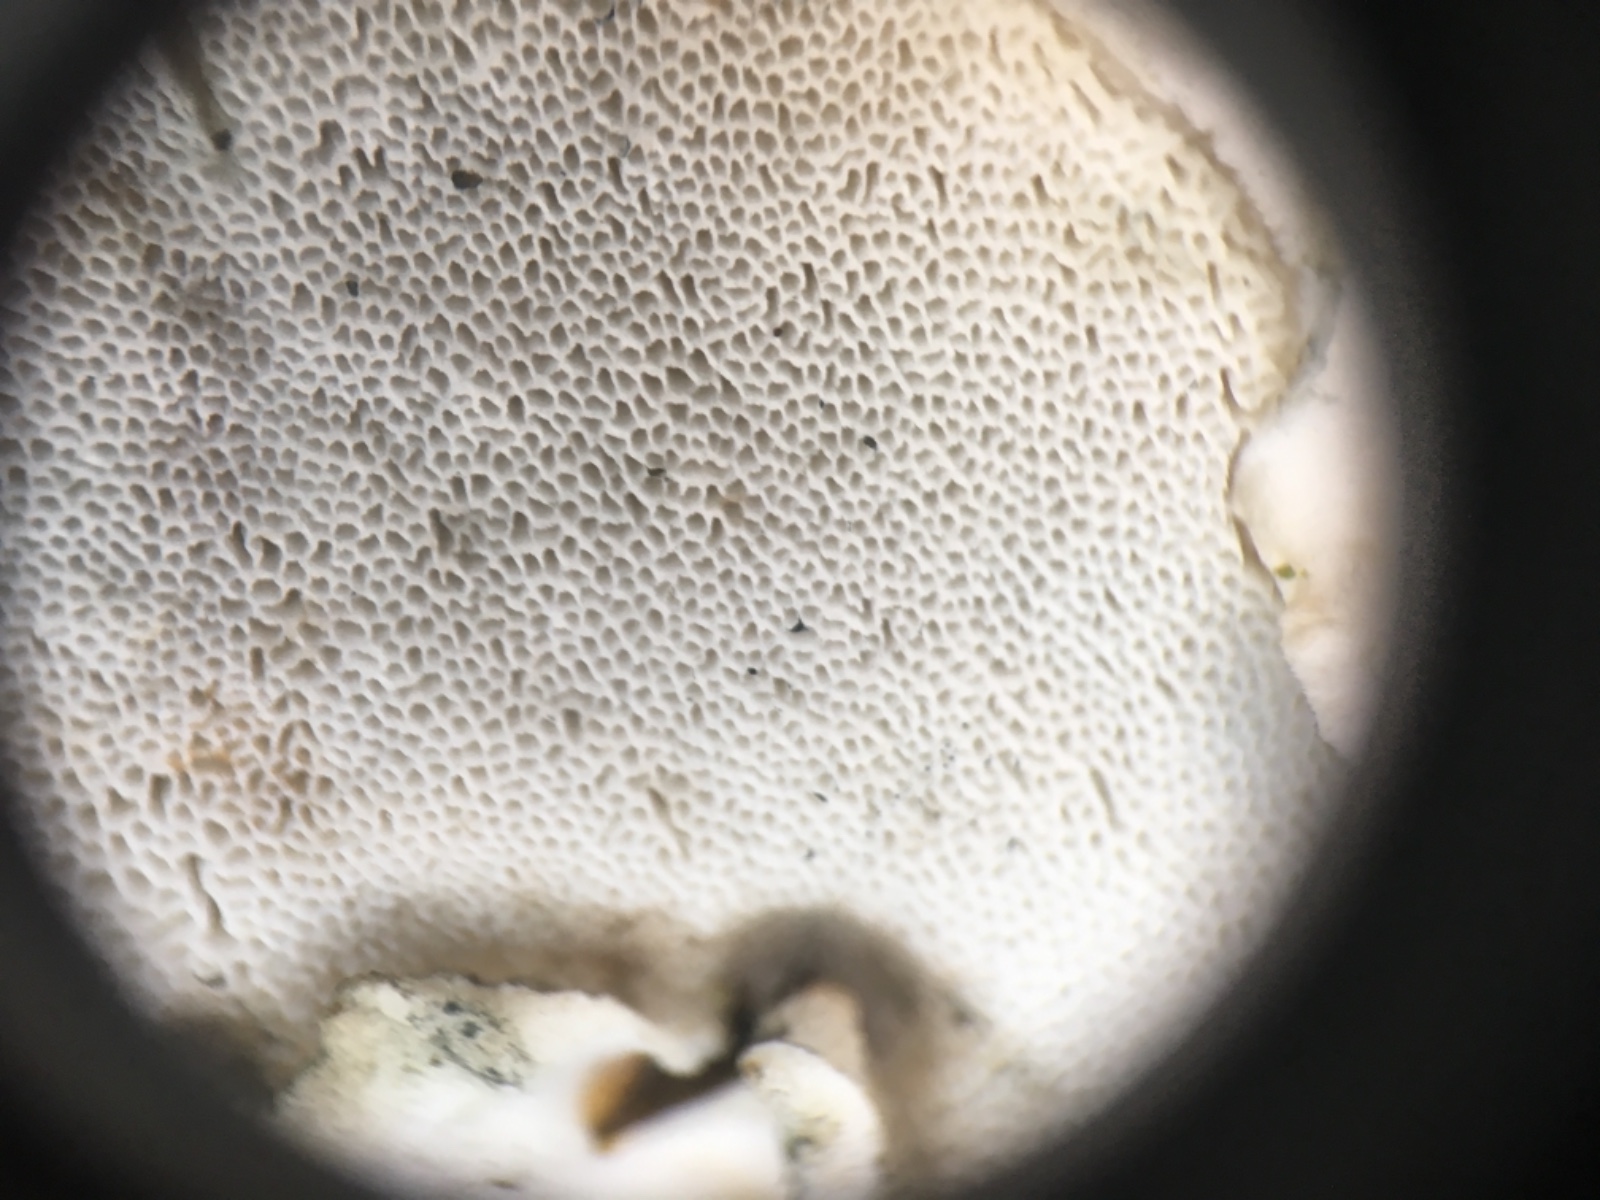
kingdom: Fungi
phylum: Basidiomycota
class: Agaricomycetes
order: Polyporales
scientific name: Polyporales
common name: poresvampordenen
